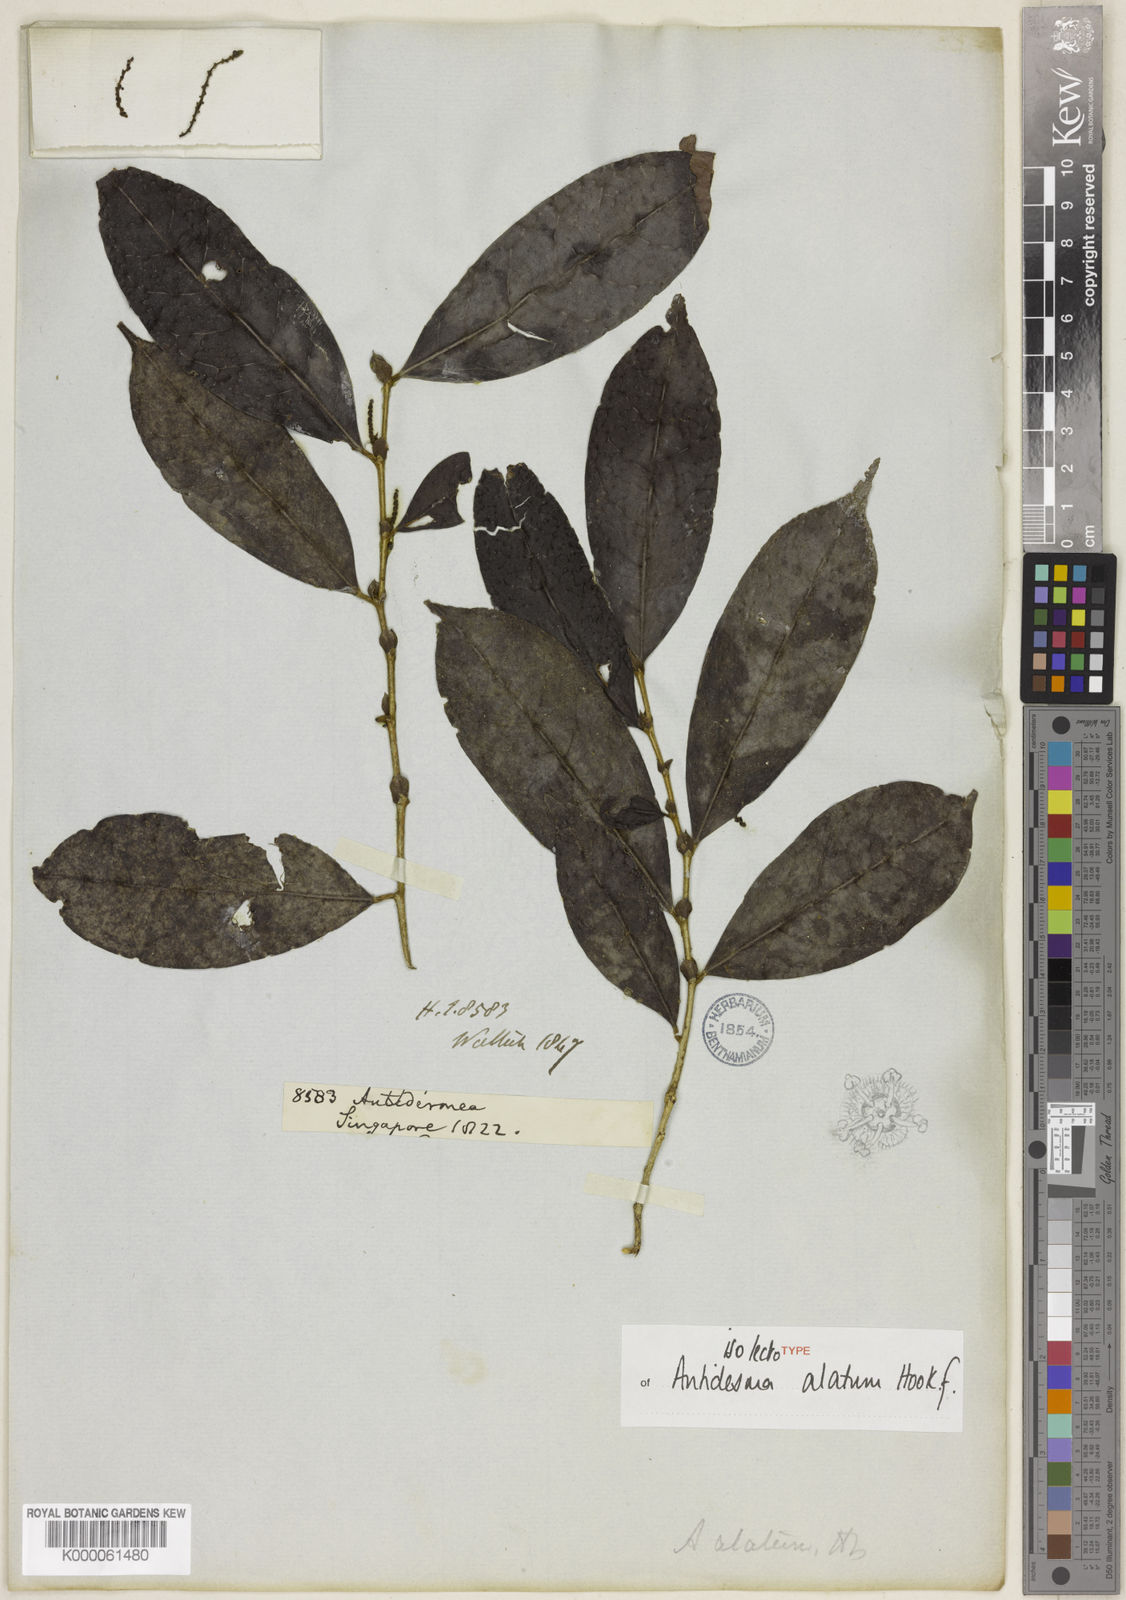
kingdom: Plantae
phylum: Tracheophyta
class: Magnoliopsida
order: Malpighiales
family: Phyllanthaceae
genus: Antidesma
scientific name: Antidesma neurocarpum
